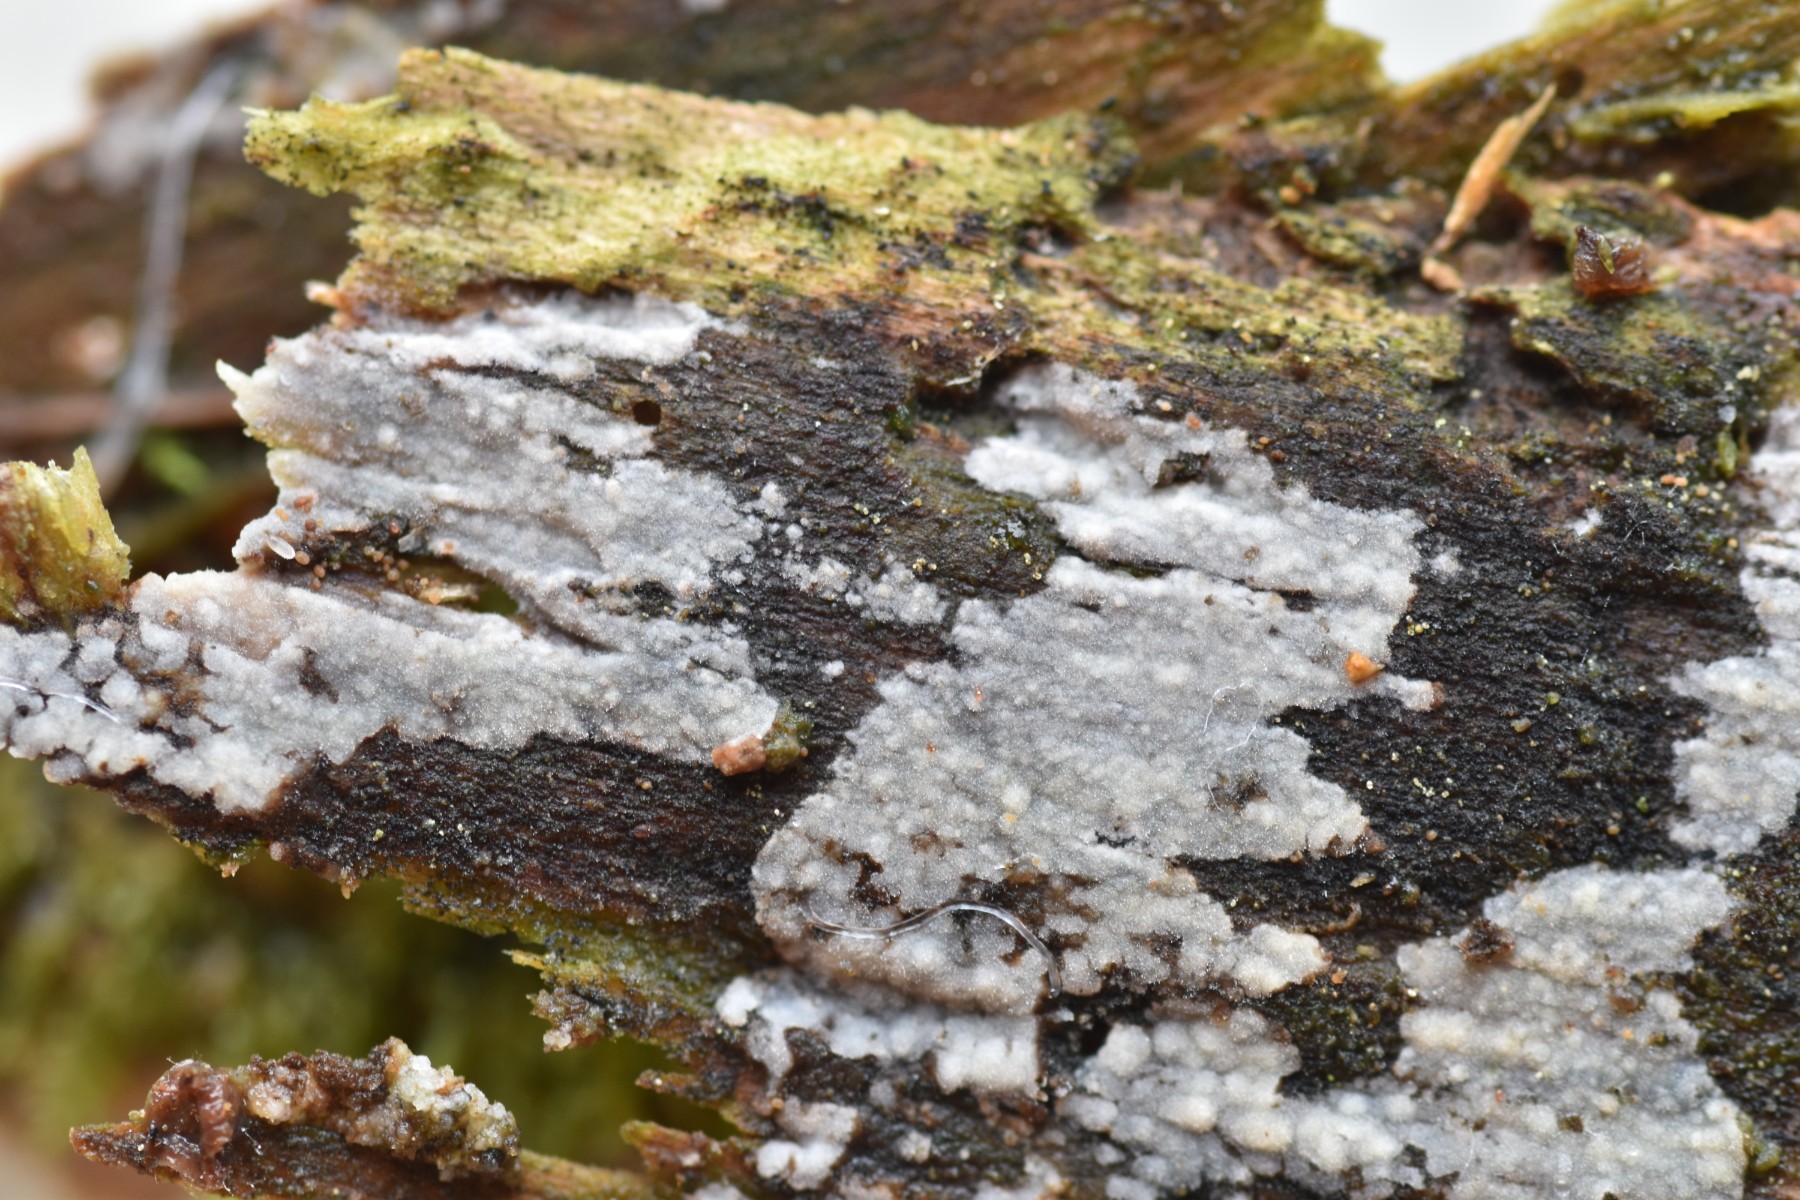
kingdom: Fungi
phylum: Basidiomycota
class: Agaricomycetes
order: Hymenochaetales
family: Rickenellaceae
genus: Peniophorella
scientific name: Peniophorella pubera
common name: dunet kalkskind
